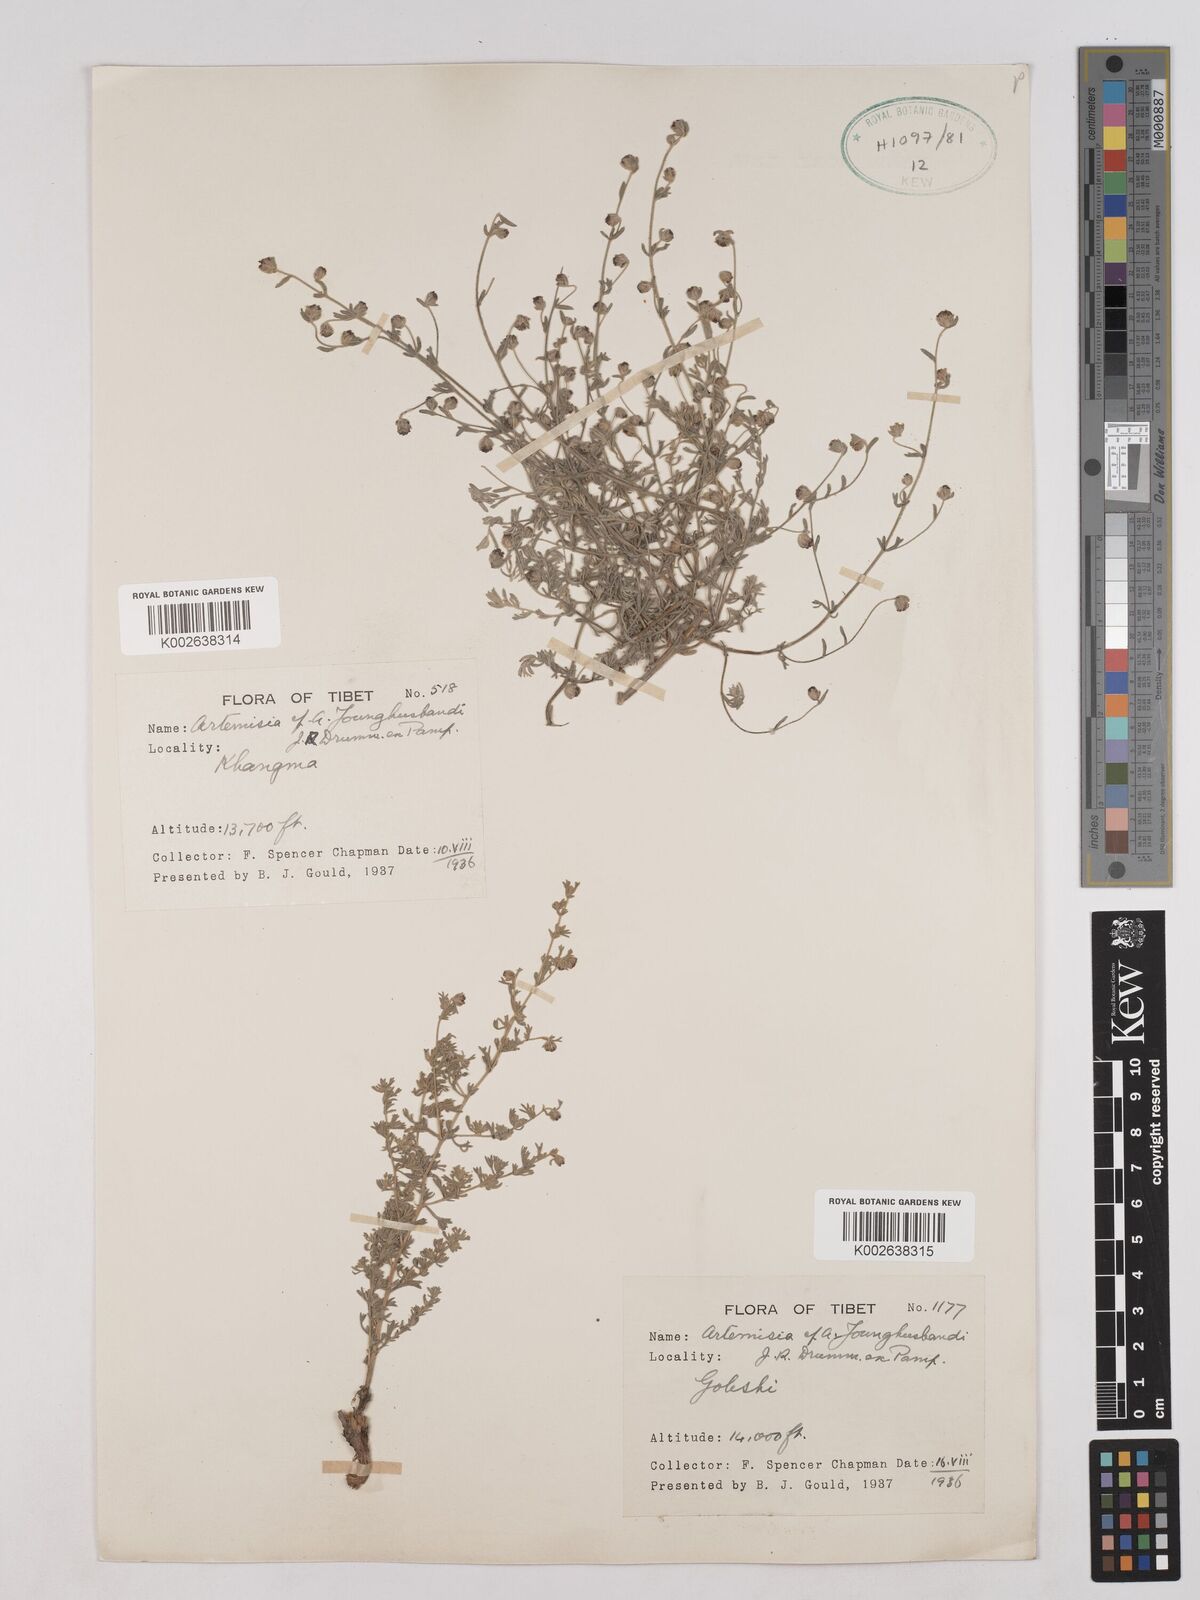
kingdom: Plantae
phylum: Tracheophyta
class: Magnoliopsida
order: Asterales
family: Asteraceae
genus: Artemisia
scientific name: Artemisia younghusbandii
